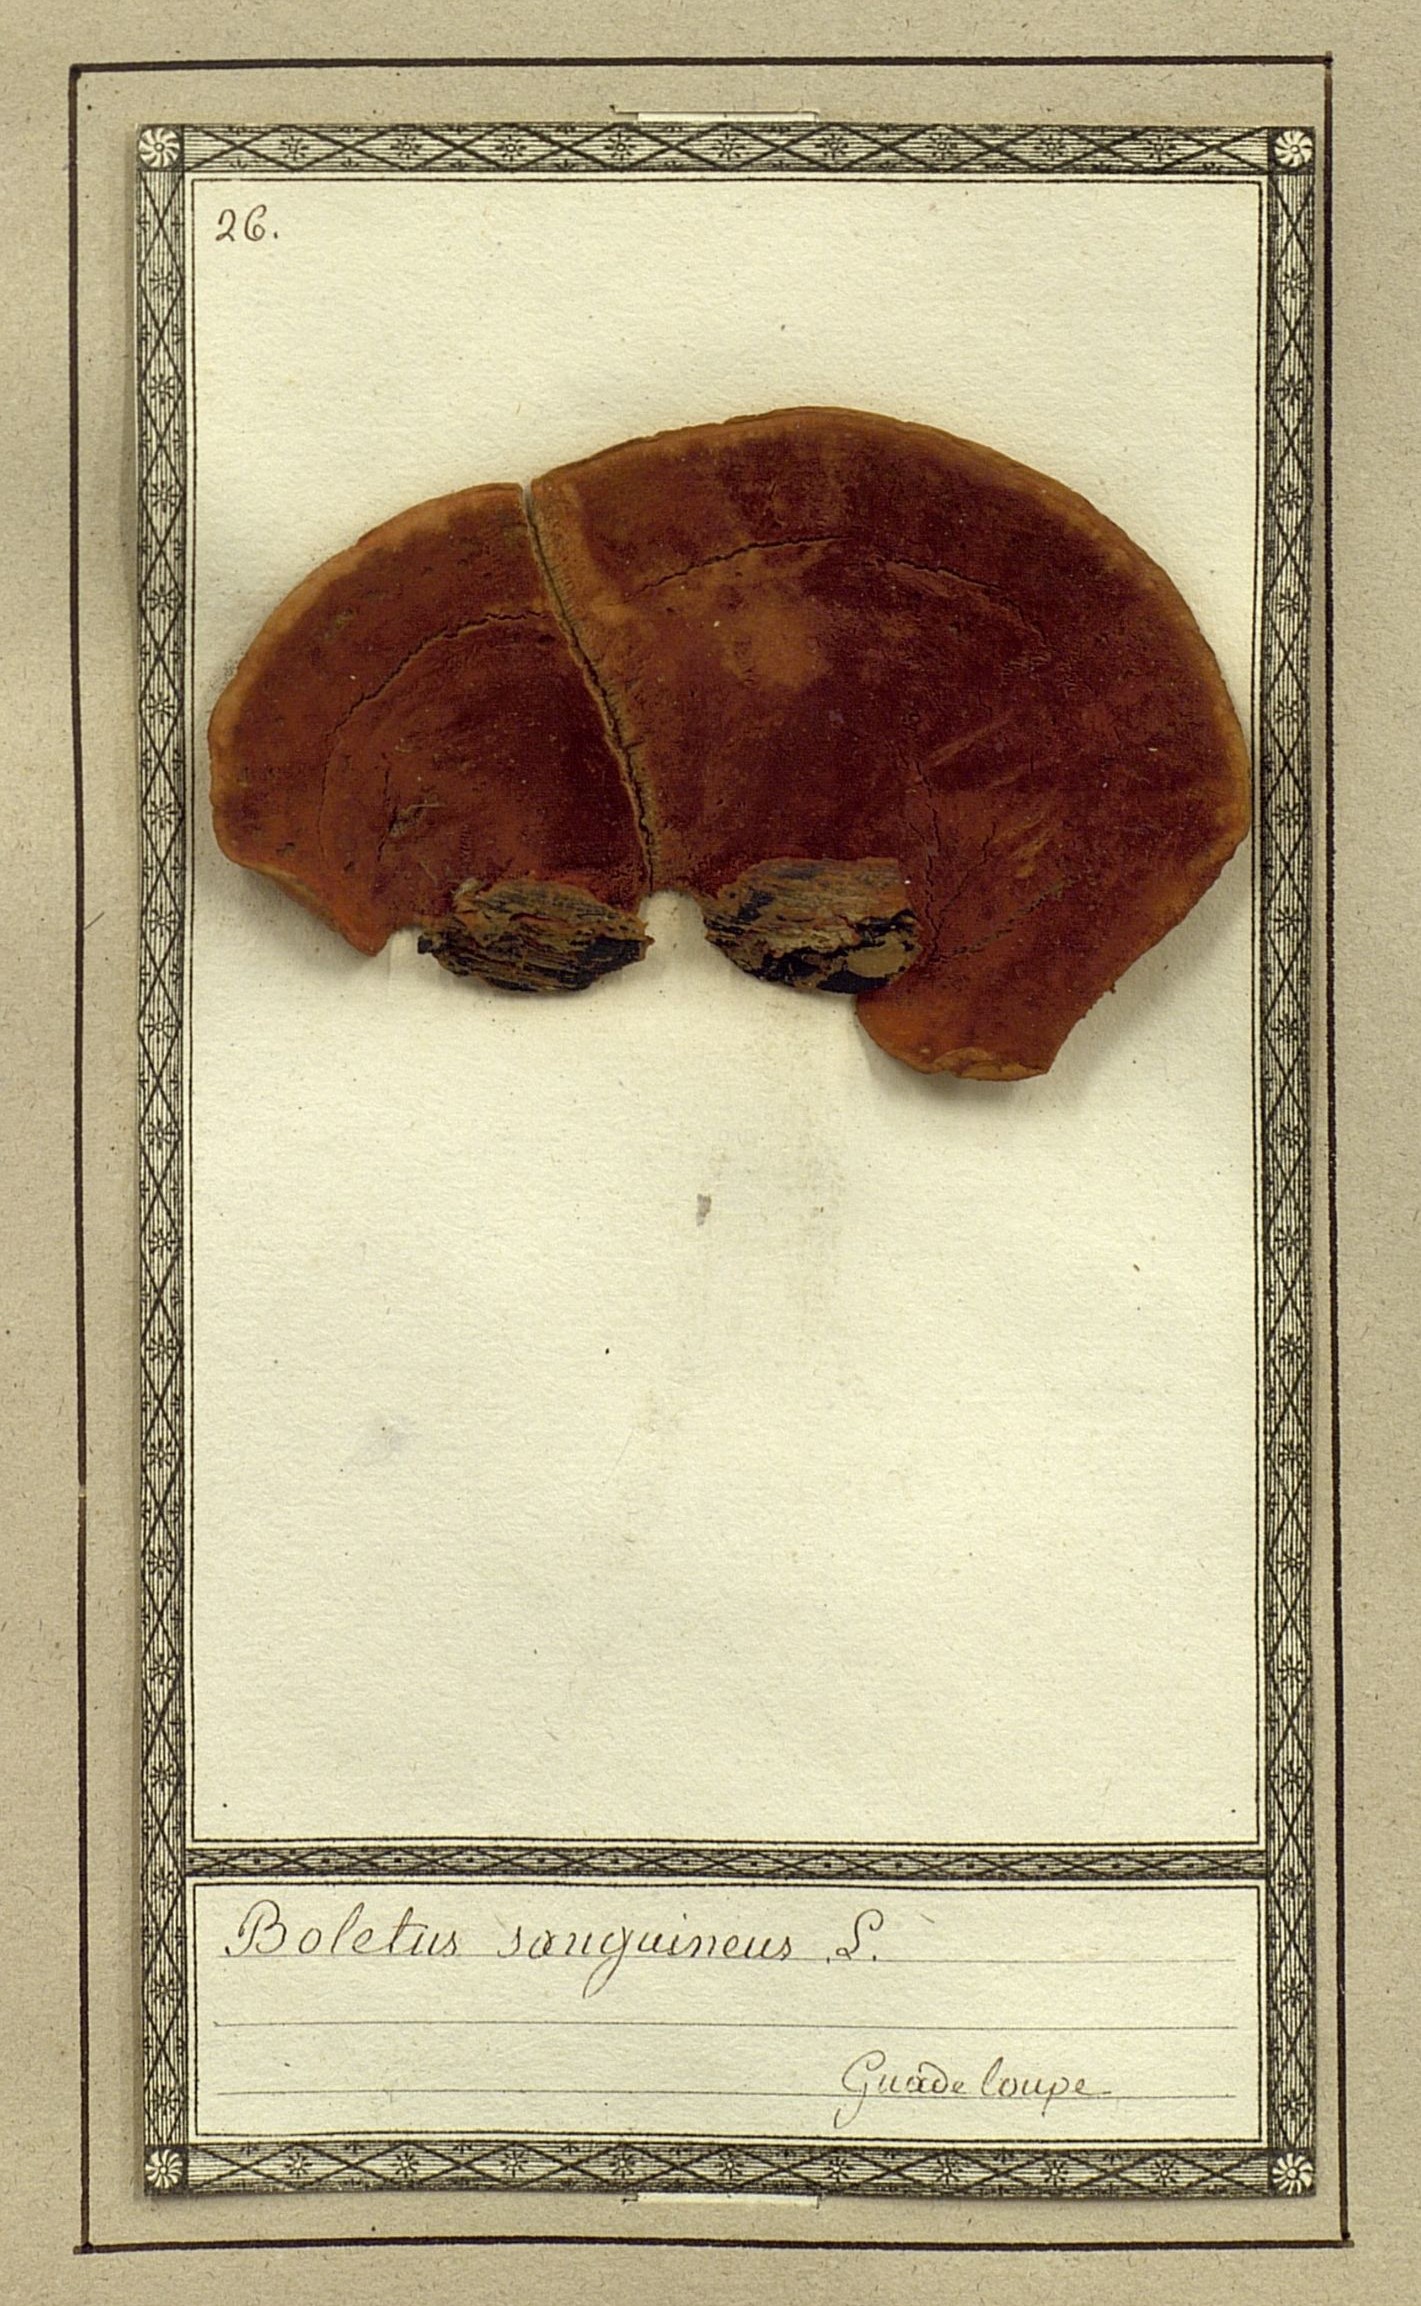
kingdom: Fungi
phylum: Basidiomycota
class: Agaricomycetes
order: Boletales
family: Boletaceae
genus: Hortiboletus
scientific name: Hortiboletus rubellus
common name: Ruby bolete
